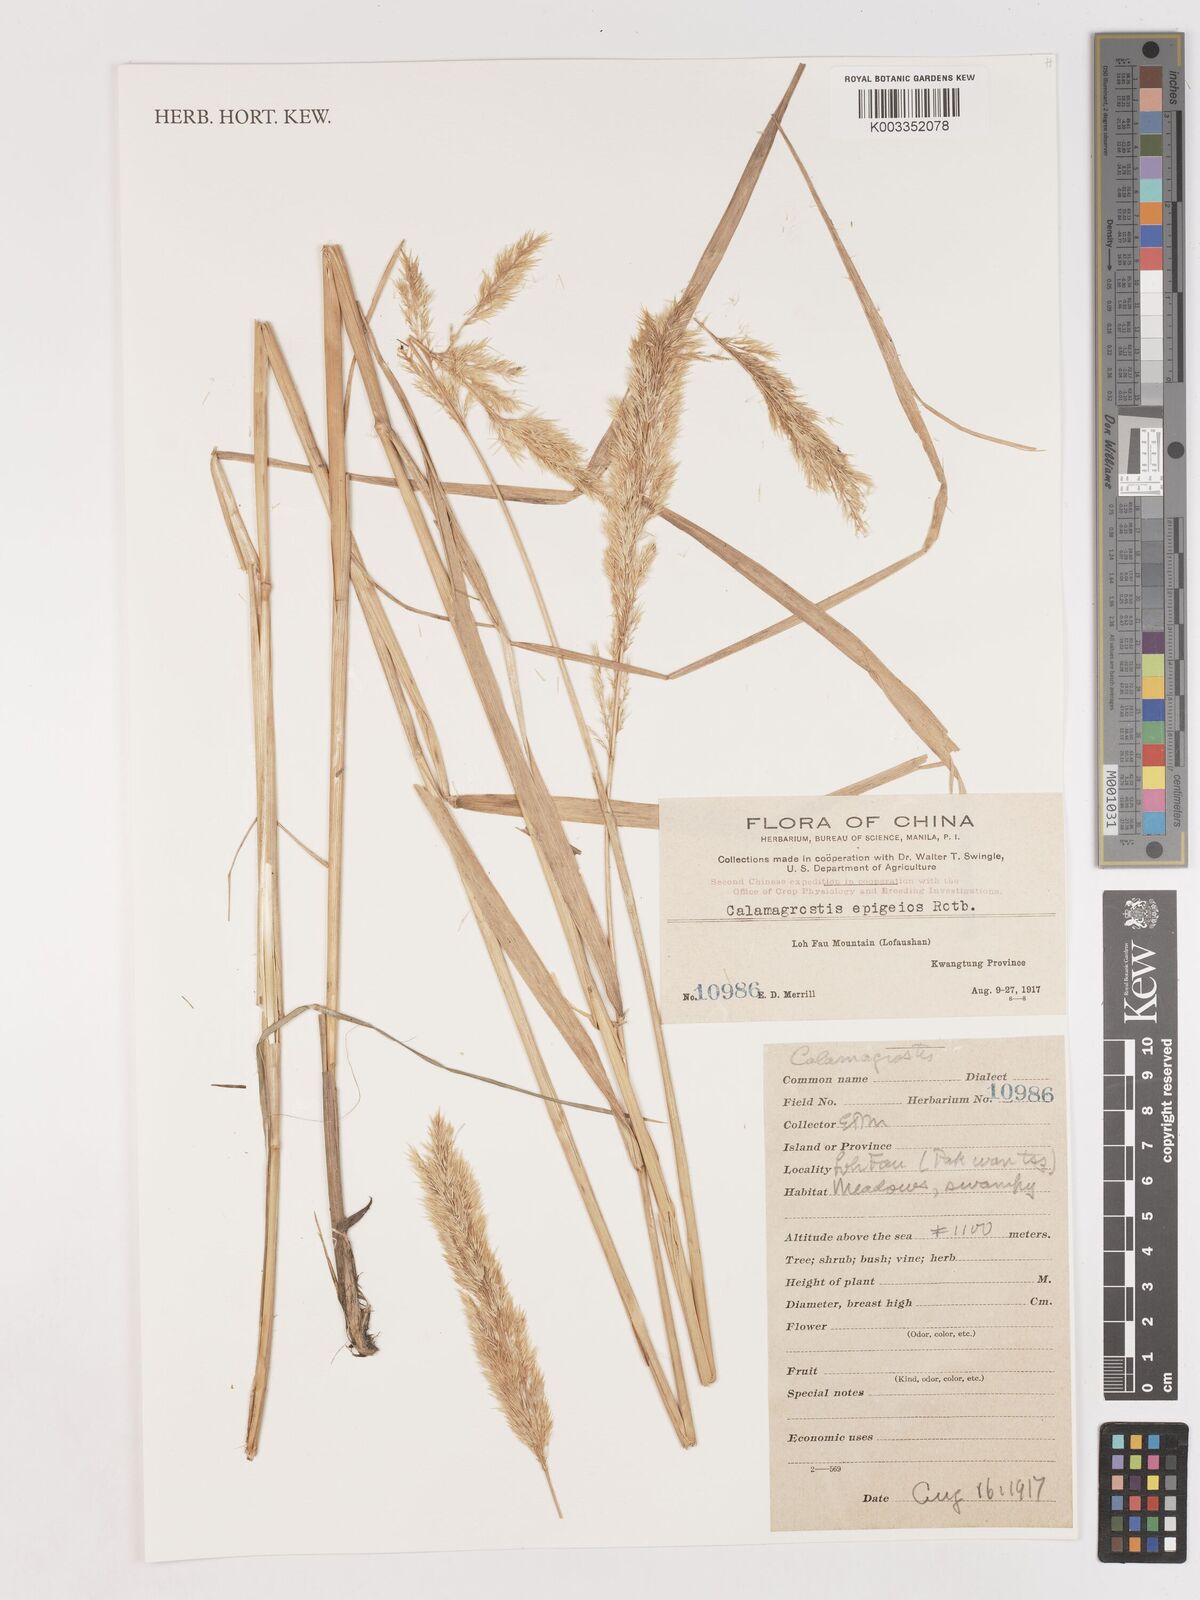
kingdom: Plantae
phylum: Tracheophyta
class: Liliopsida
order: Poales
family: Poaceae
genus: Calamagrostis
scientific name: Calamagrostis epigejos
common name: Wood small-reed
